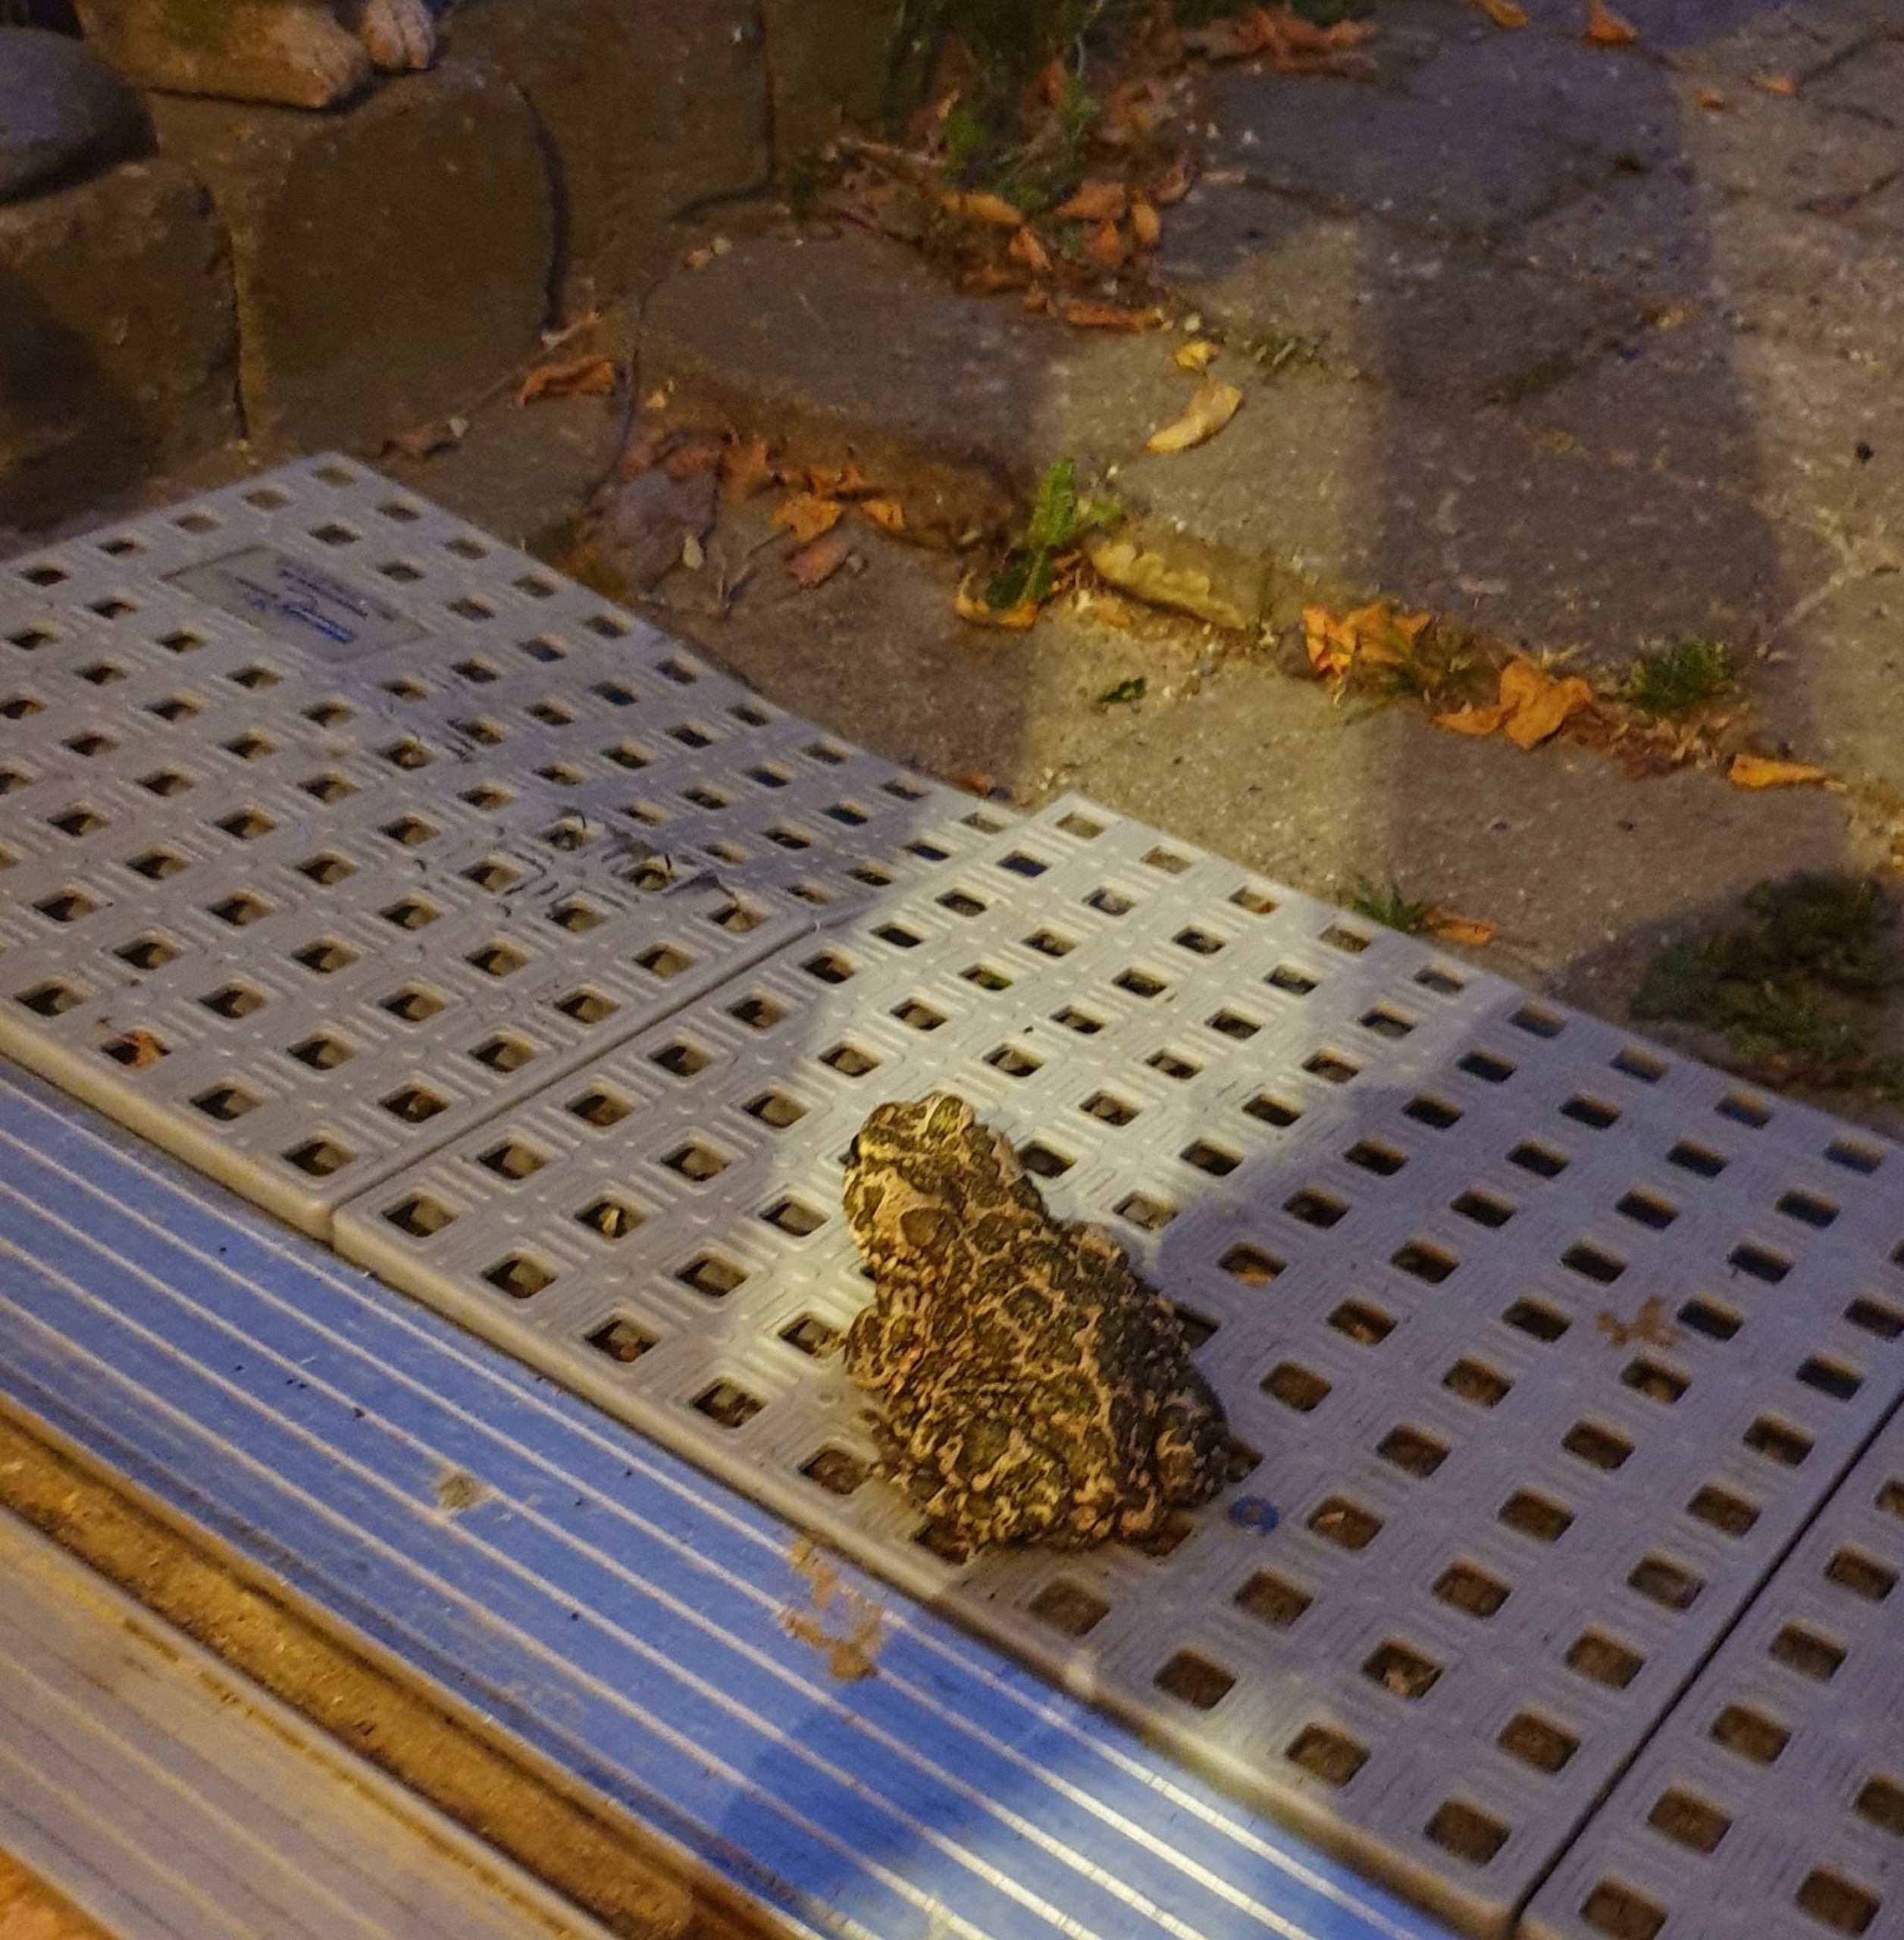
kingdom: Animalia
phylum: Chordata
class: Amphibia
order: Anura
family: Bufonidae
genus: Bufotes
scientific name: Bufotes viridis
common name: Grønbroget tudse
